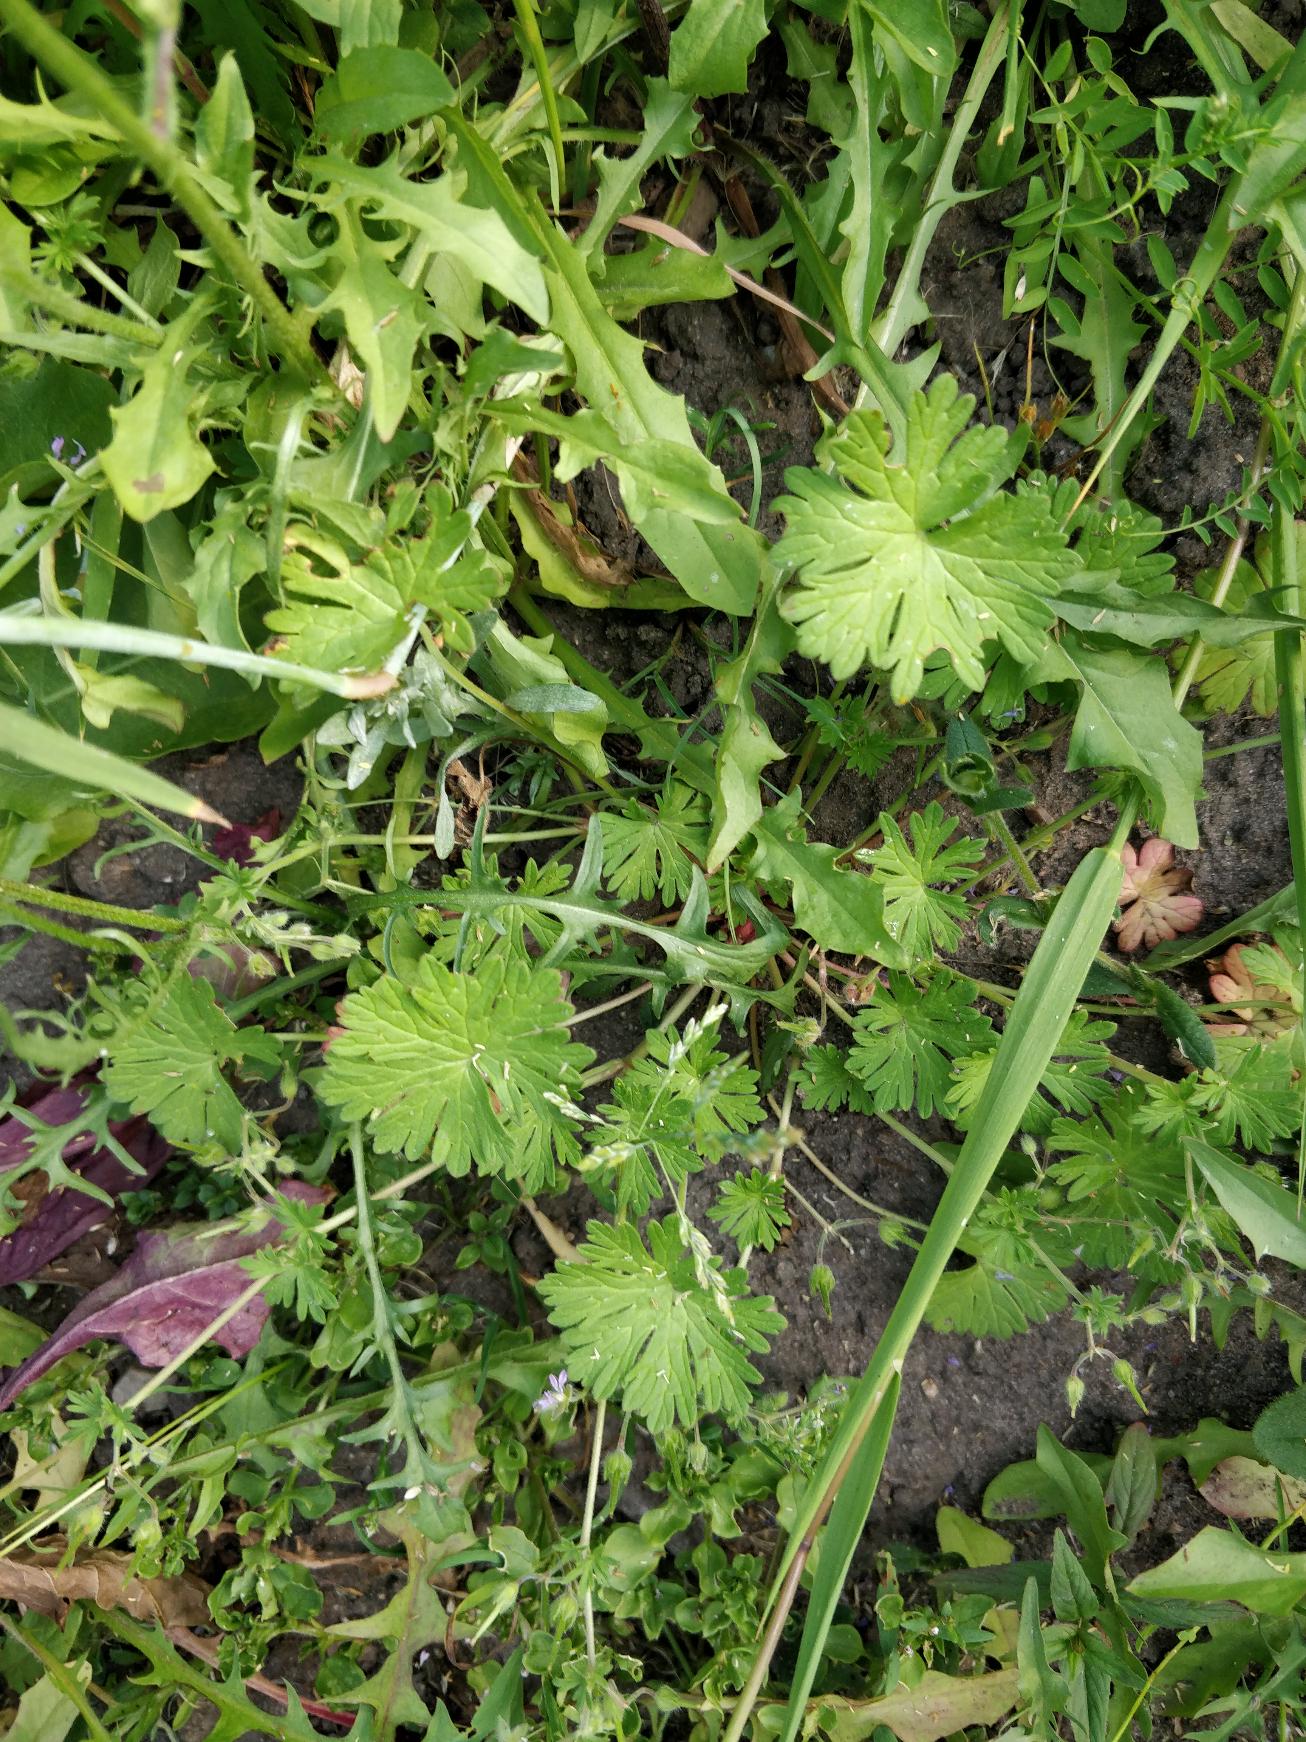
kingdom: Plantae
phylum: Tracheophyta
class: Magnoliopsida
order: Geraniales
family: Geraniaceae
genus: Geranium
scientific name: Geranium pusillum
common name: Liden storkenæb
